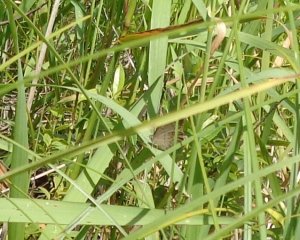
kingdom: Animalia
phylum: Arthropoda
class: Insecta
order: Lepidoptera
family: Nymphalidae
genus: Lethe
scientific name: Lethe eurydice
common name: Appalachian Eyed Brown
